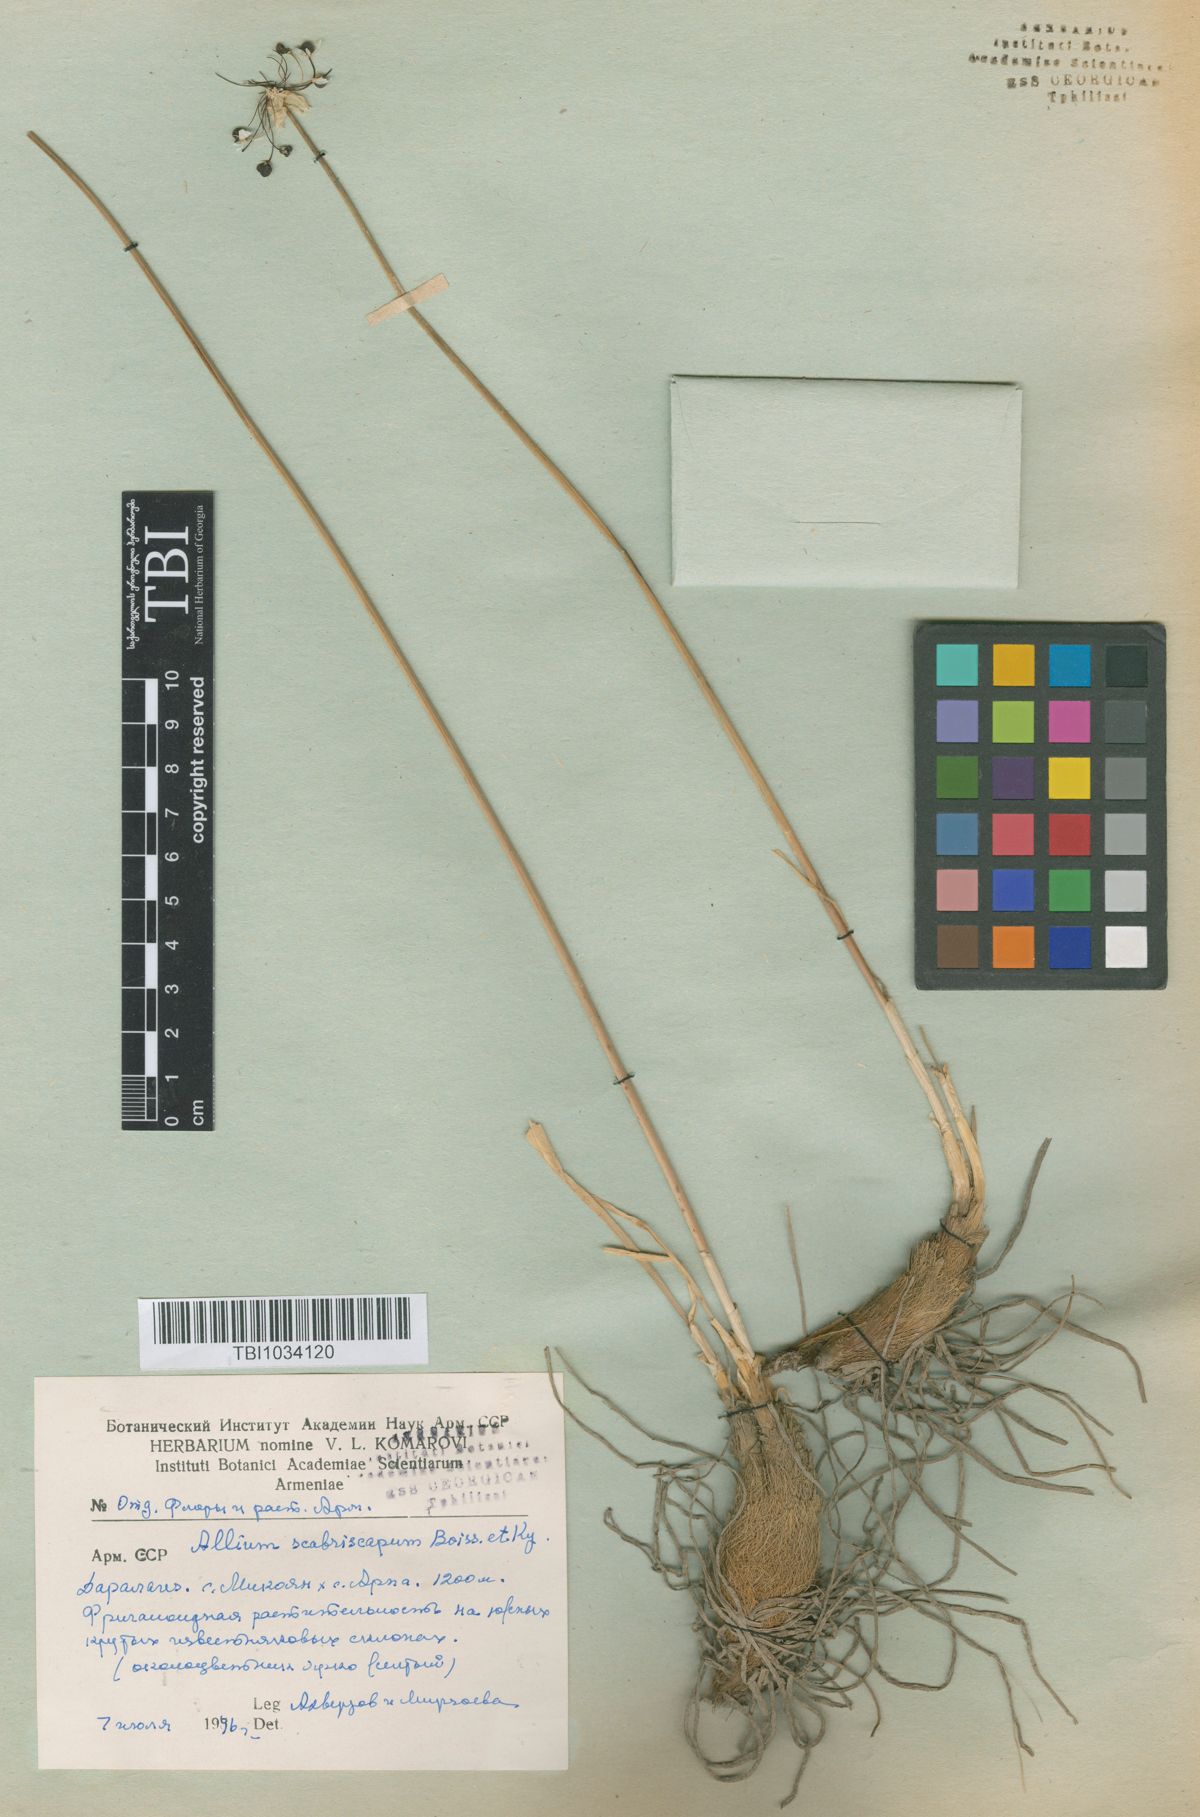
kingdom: Plantae
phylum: Tracheophyta
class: Liliopsida
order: Asparagales
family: Amaryllidaceae
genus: Allium
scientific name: Allium scabriscapum
